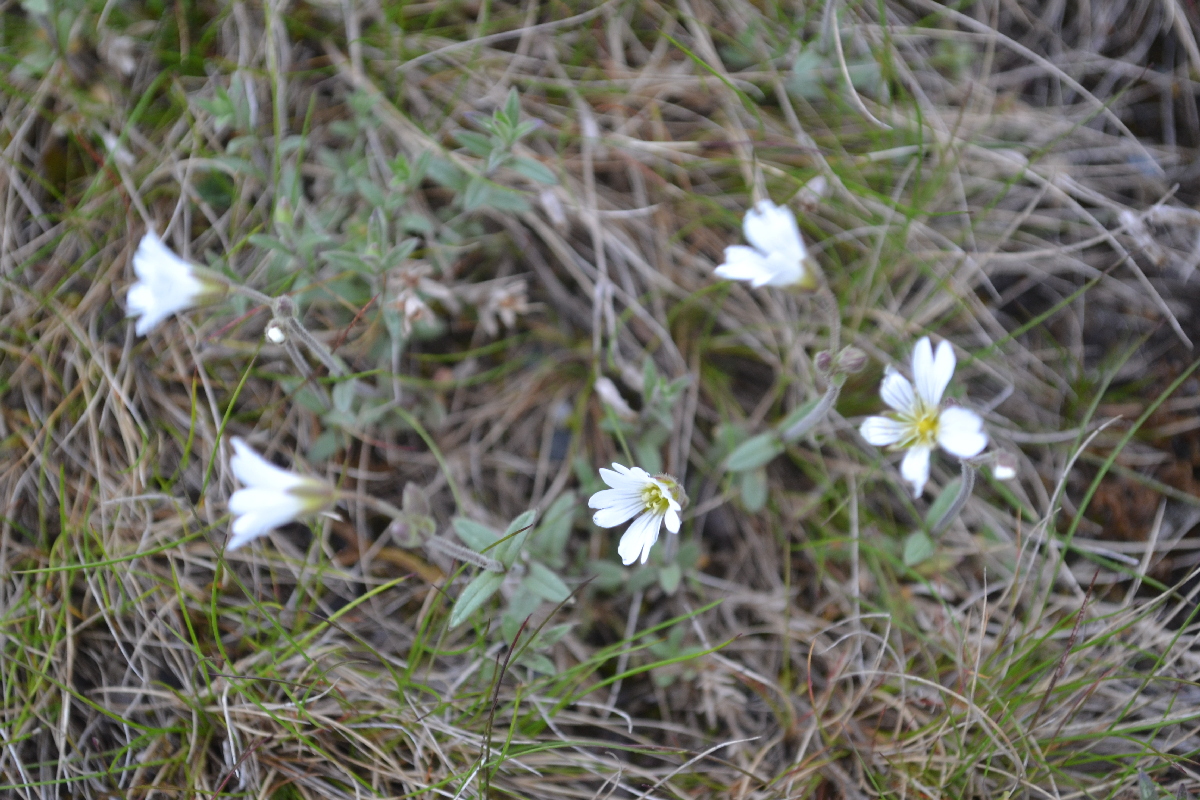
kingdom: Plantae
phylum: Tracheophyta
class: Magnoliopsida
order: Caryophyllales
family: Caryophyllaceae
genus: Cerastium
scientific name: Cerastium alpinum
